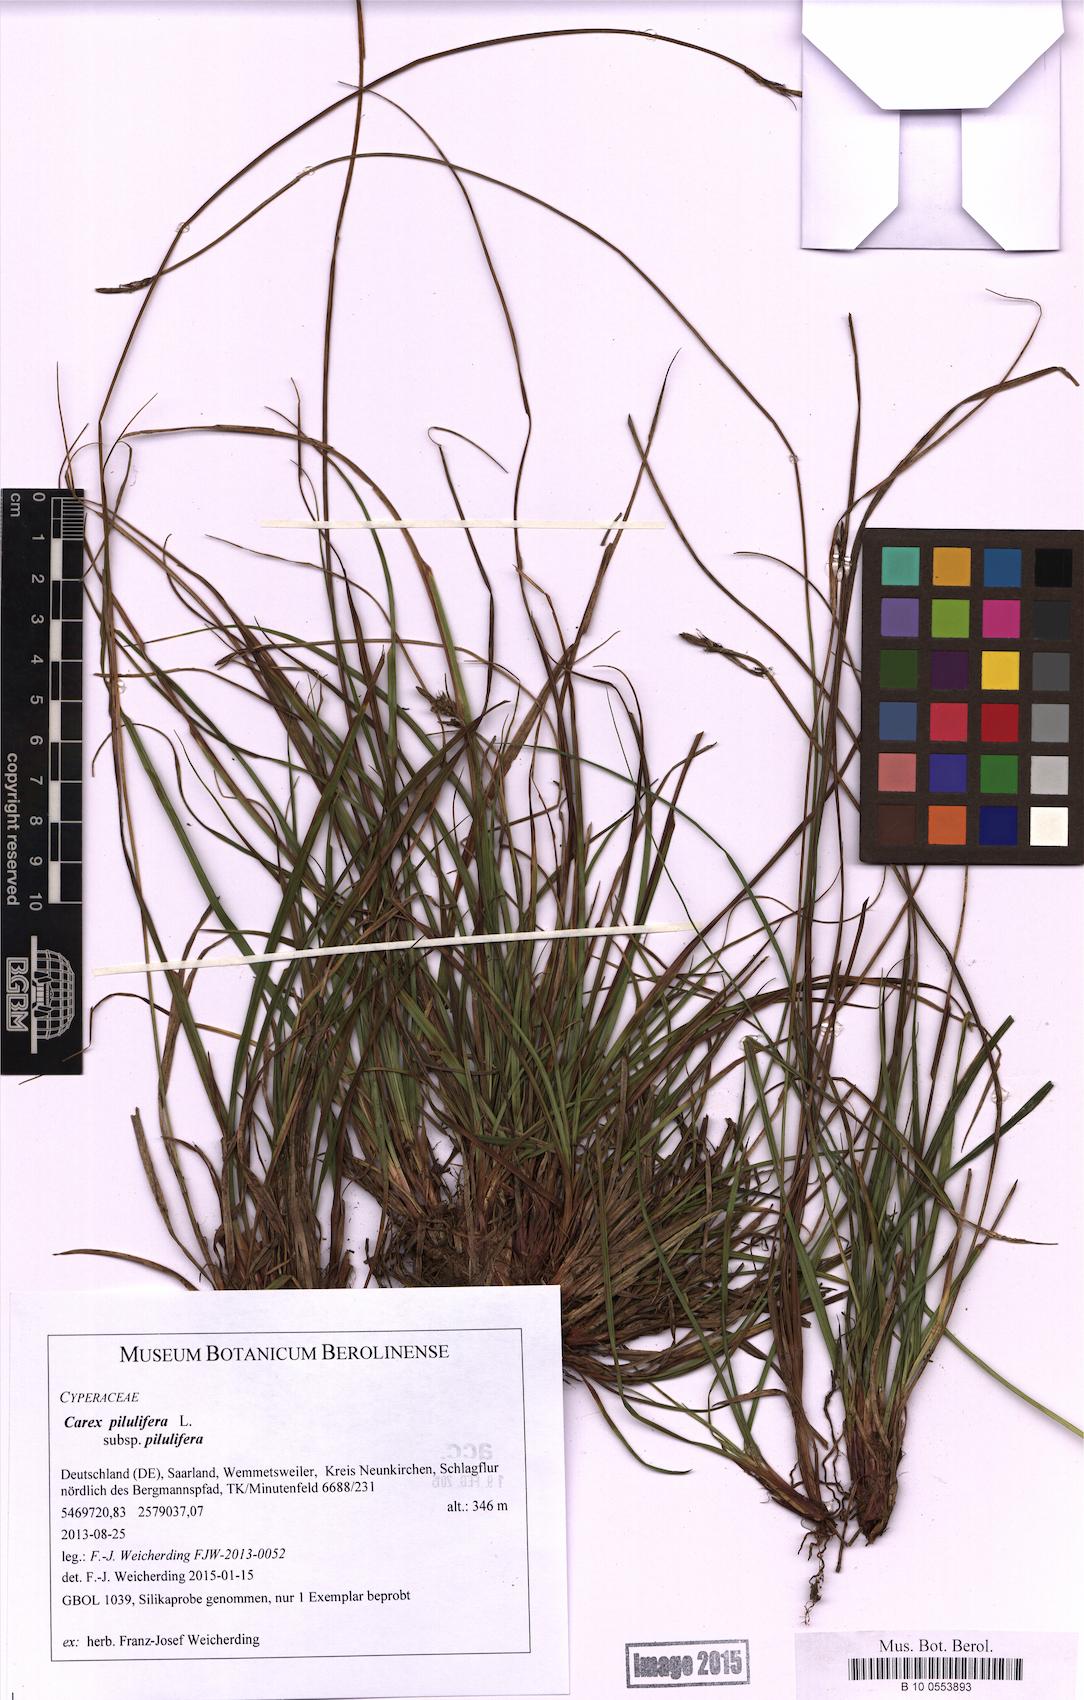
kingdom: Plantae
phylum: Tracheophyta
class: Liliopsida
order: Poales
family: Cyperaceae
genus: Carex
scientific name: Carex pilulifera
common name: Pill sedge
